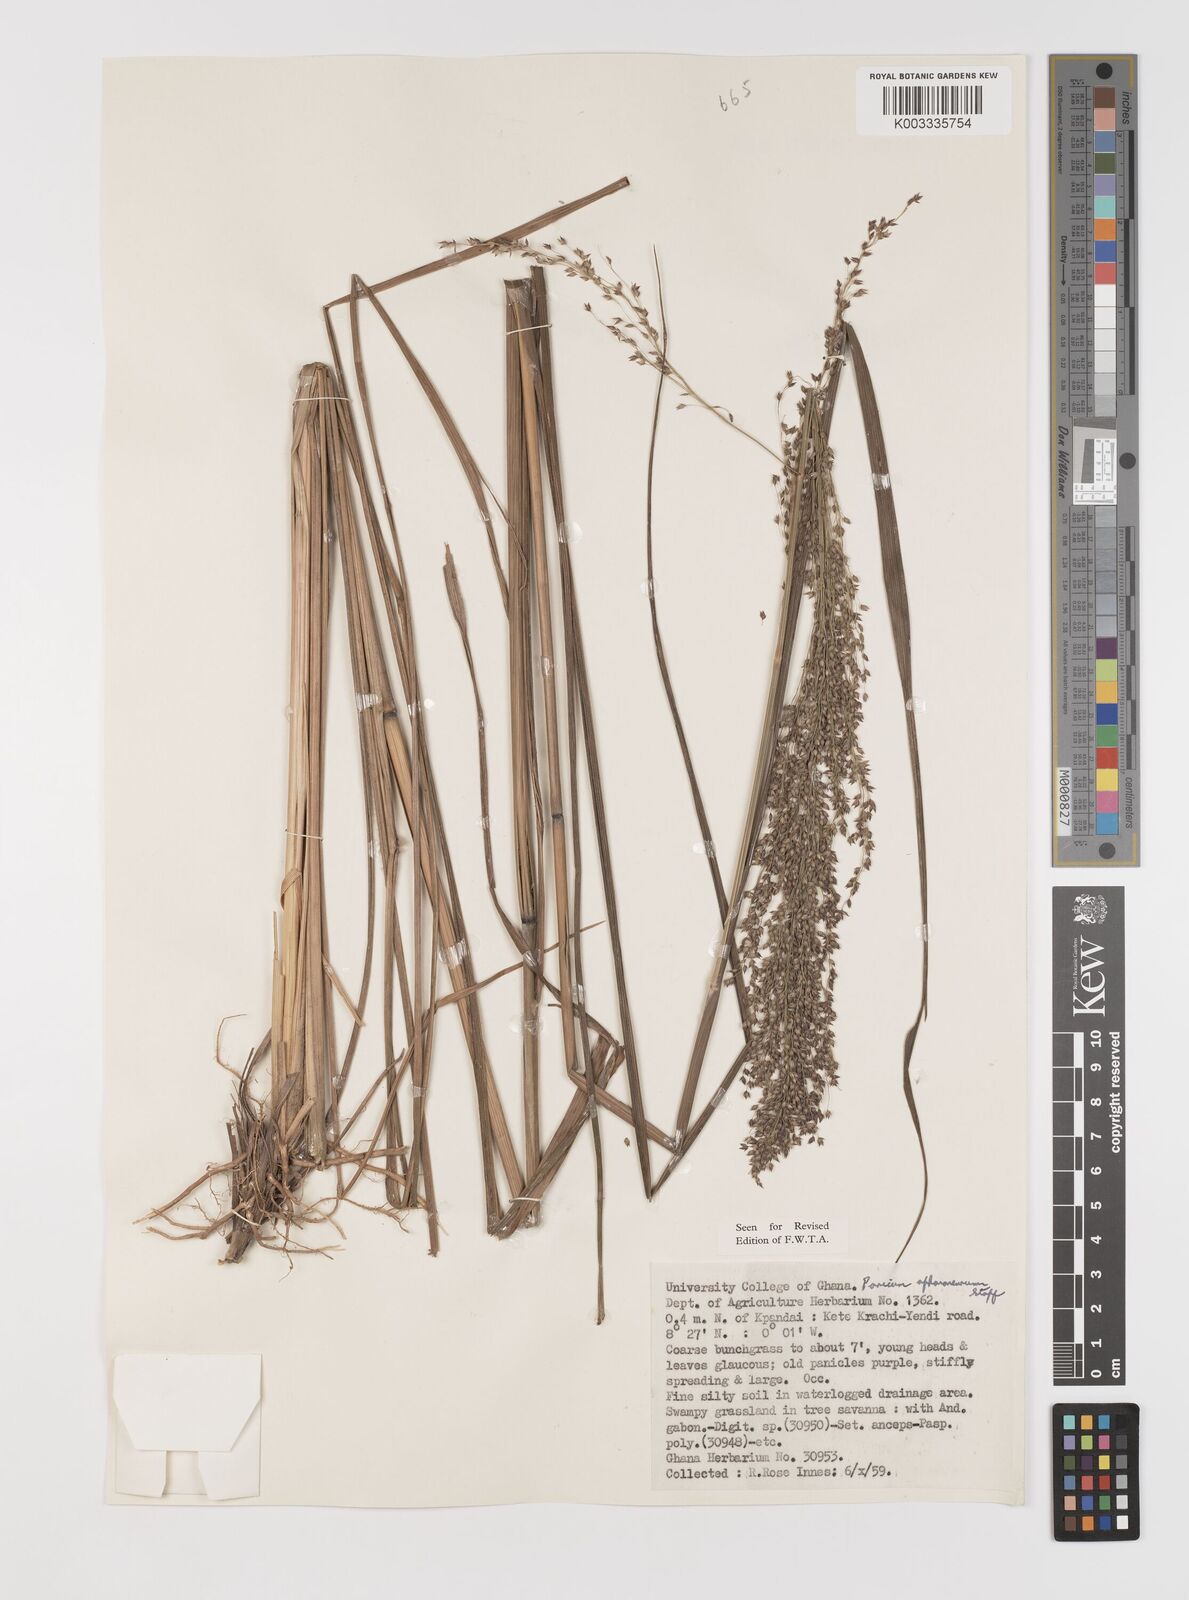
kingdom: Plantae
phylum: Tracheophyta
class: Liliopsida
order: Poales
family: Poaceae
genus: Panicum
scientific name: Panicum fluviicola
